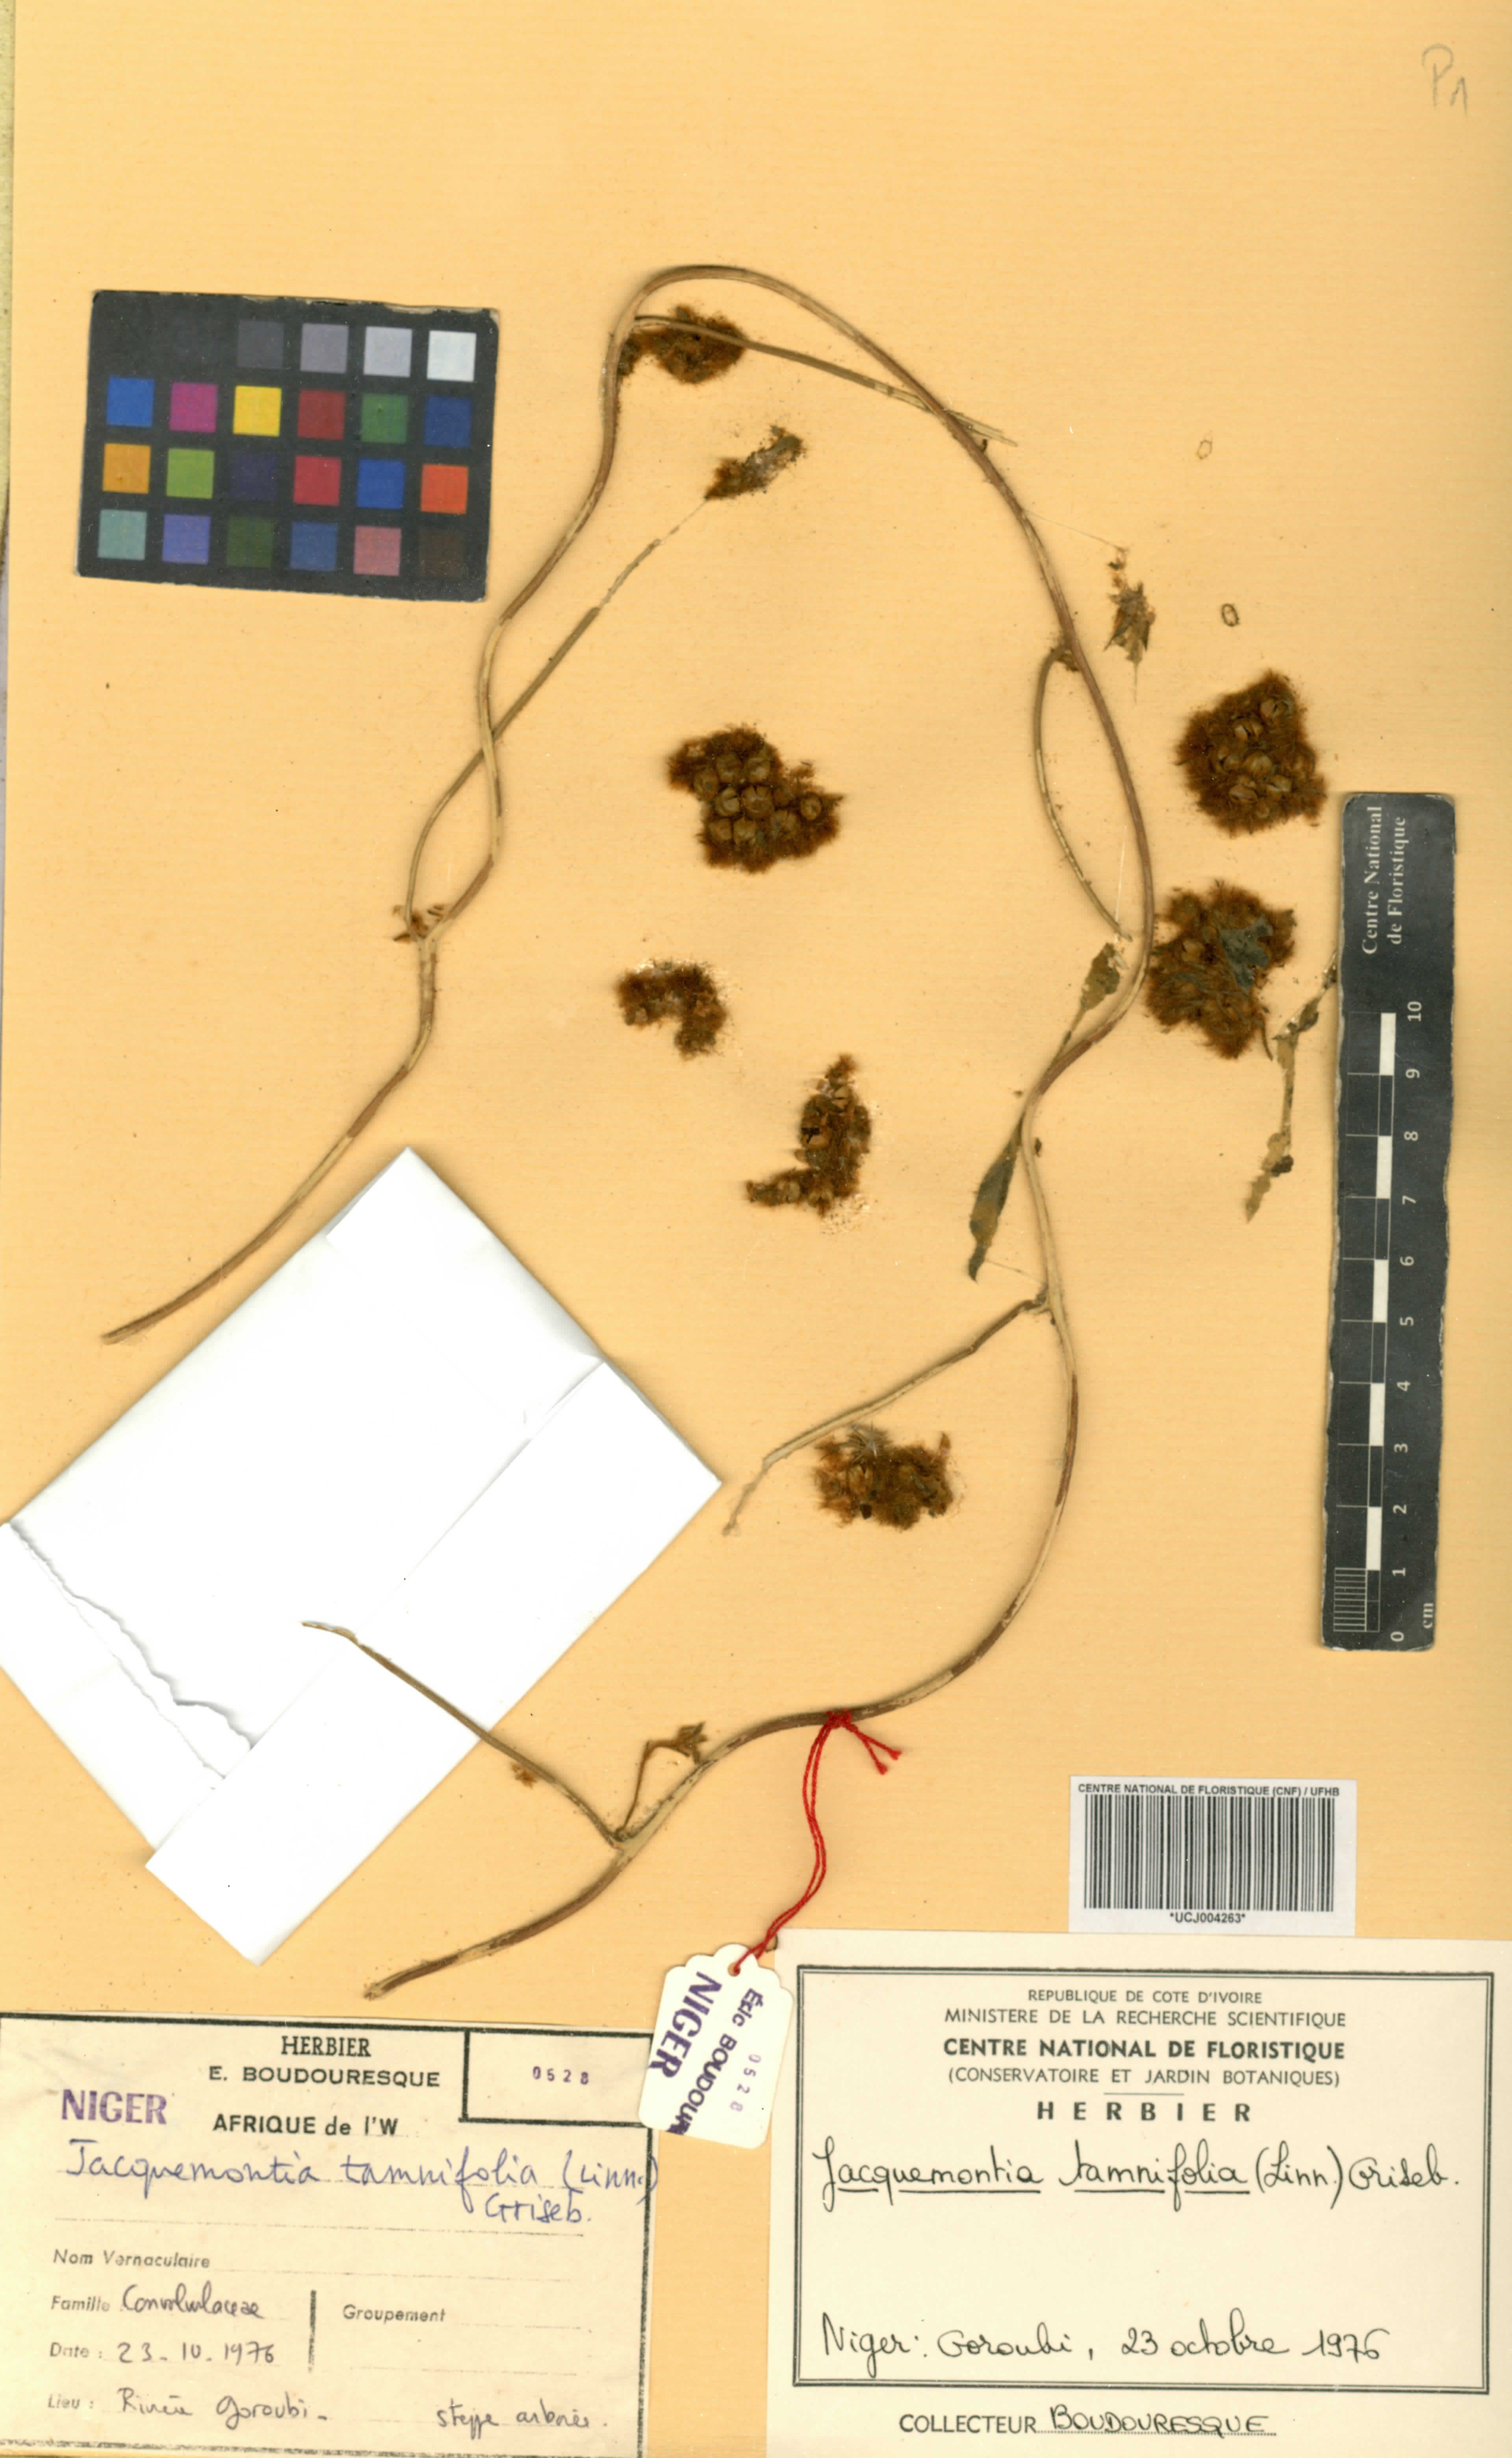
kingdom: Plantae
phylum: Tracheophyta
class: Magnoliopsida
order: Solanales
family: Convolvulaceae
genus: Jacquemontia
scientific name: Jacquemontia tamnifolia
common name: Hairy clustervine
